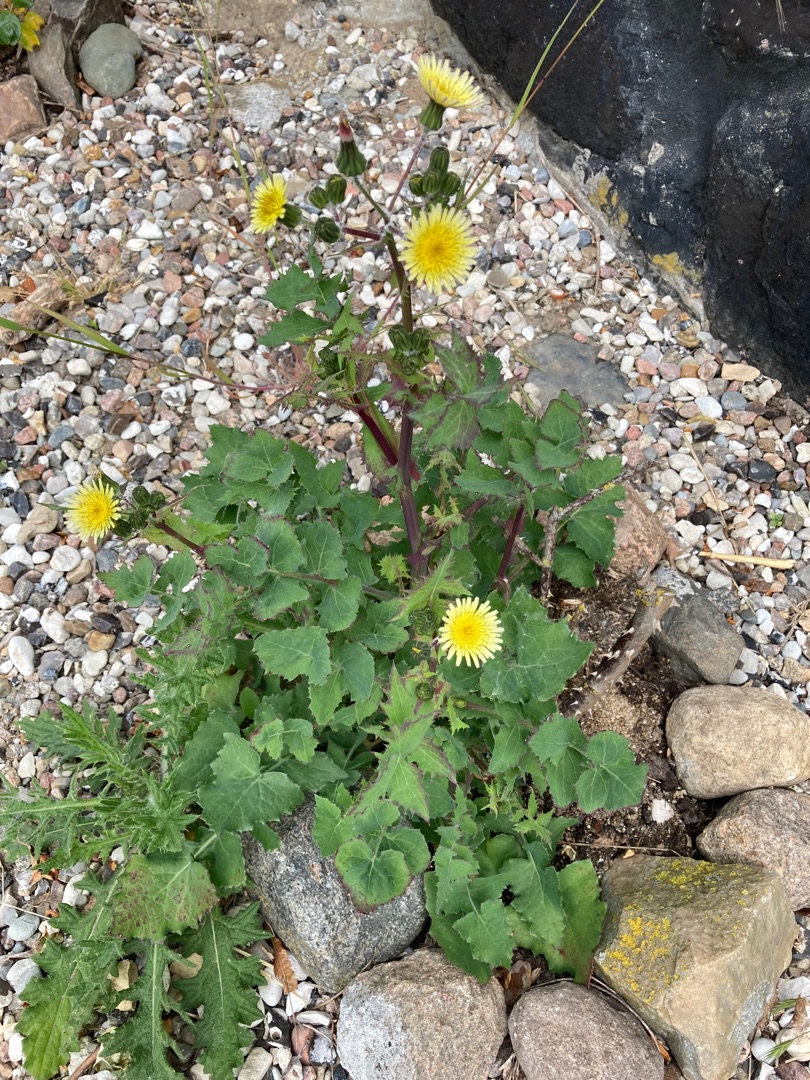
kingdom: Plantae
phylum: Tracheophyta
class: Magnoliopsida
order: Asterales
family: Asteraceae
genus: Sonchus
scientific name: Sonchus oleraceus
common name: Almindelig svinemælk
